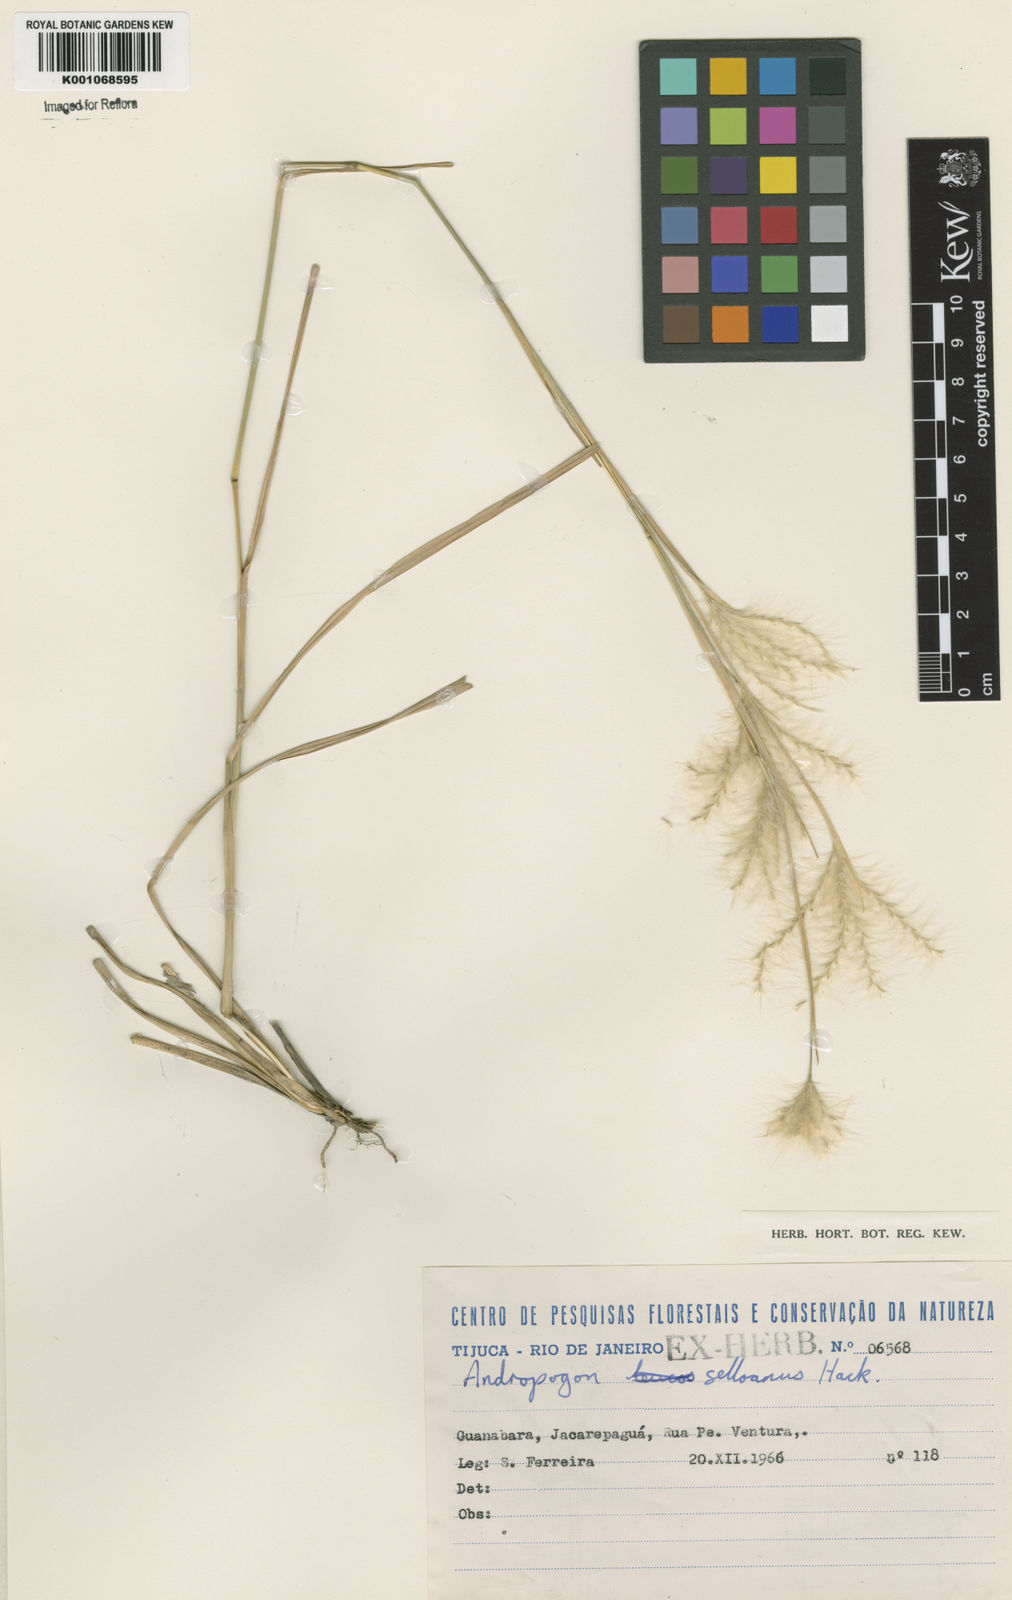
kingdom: Plantae
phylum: Tracheophyta
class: Liliopsida
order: Poales
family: Poaceae
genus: Andropogon
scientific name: Andropogon selloanus
